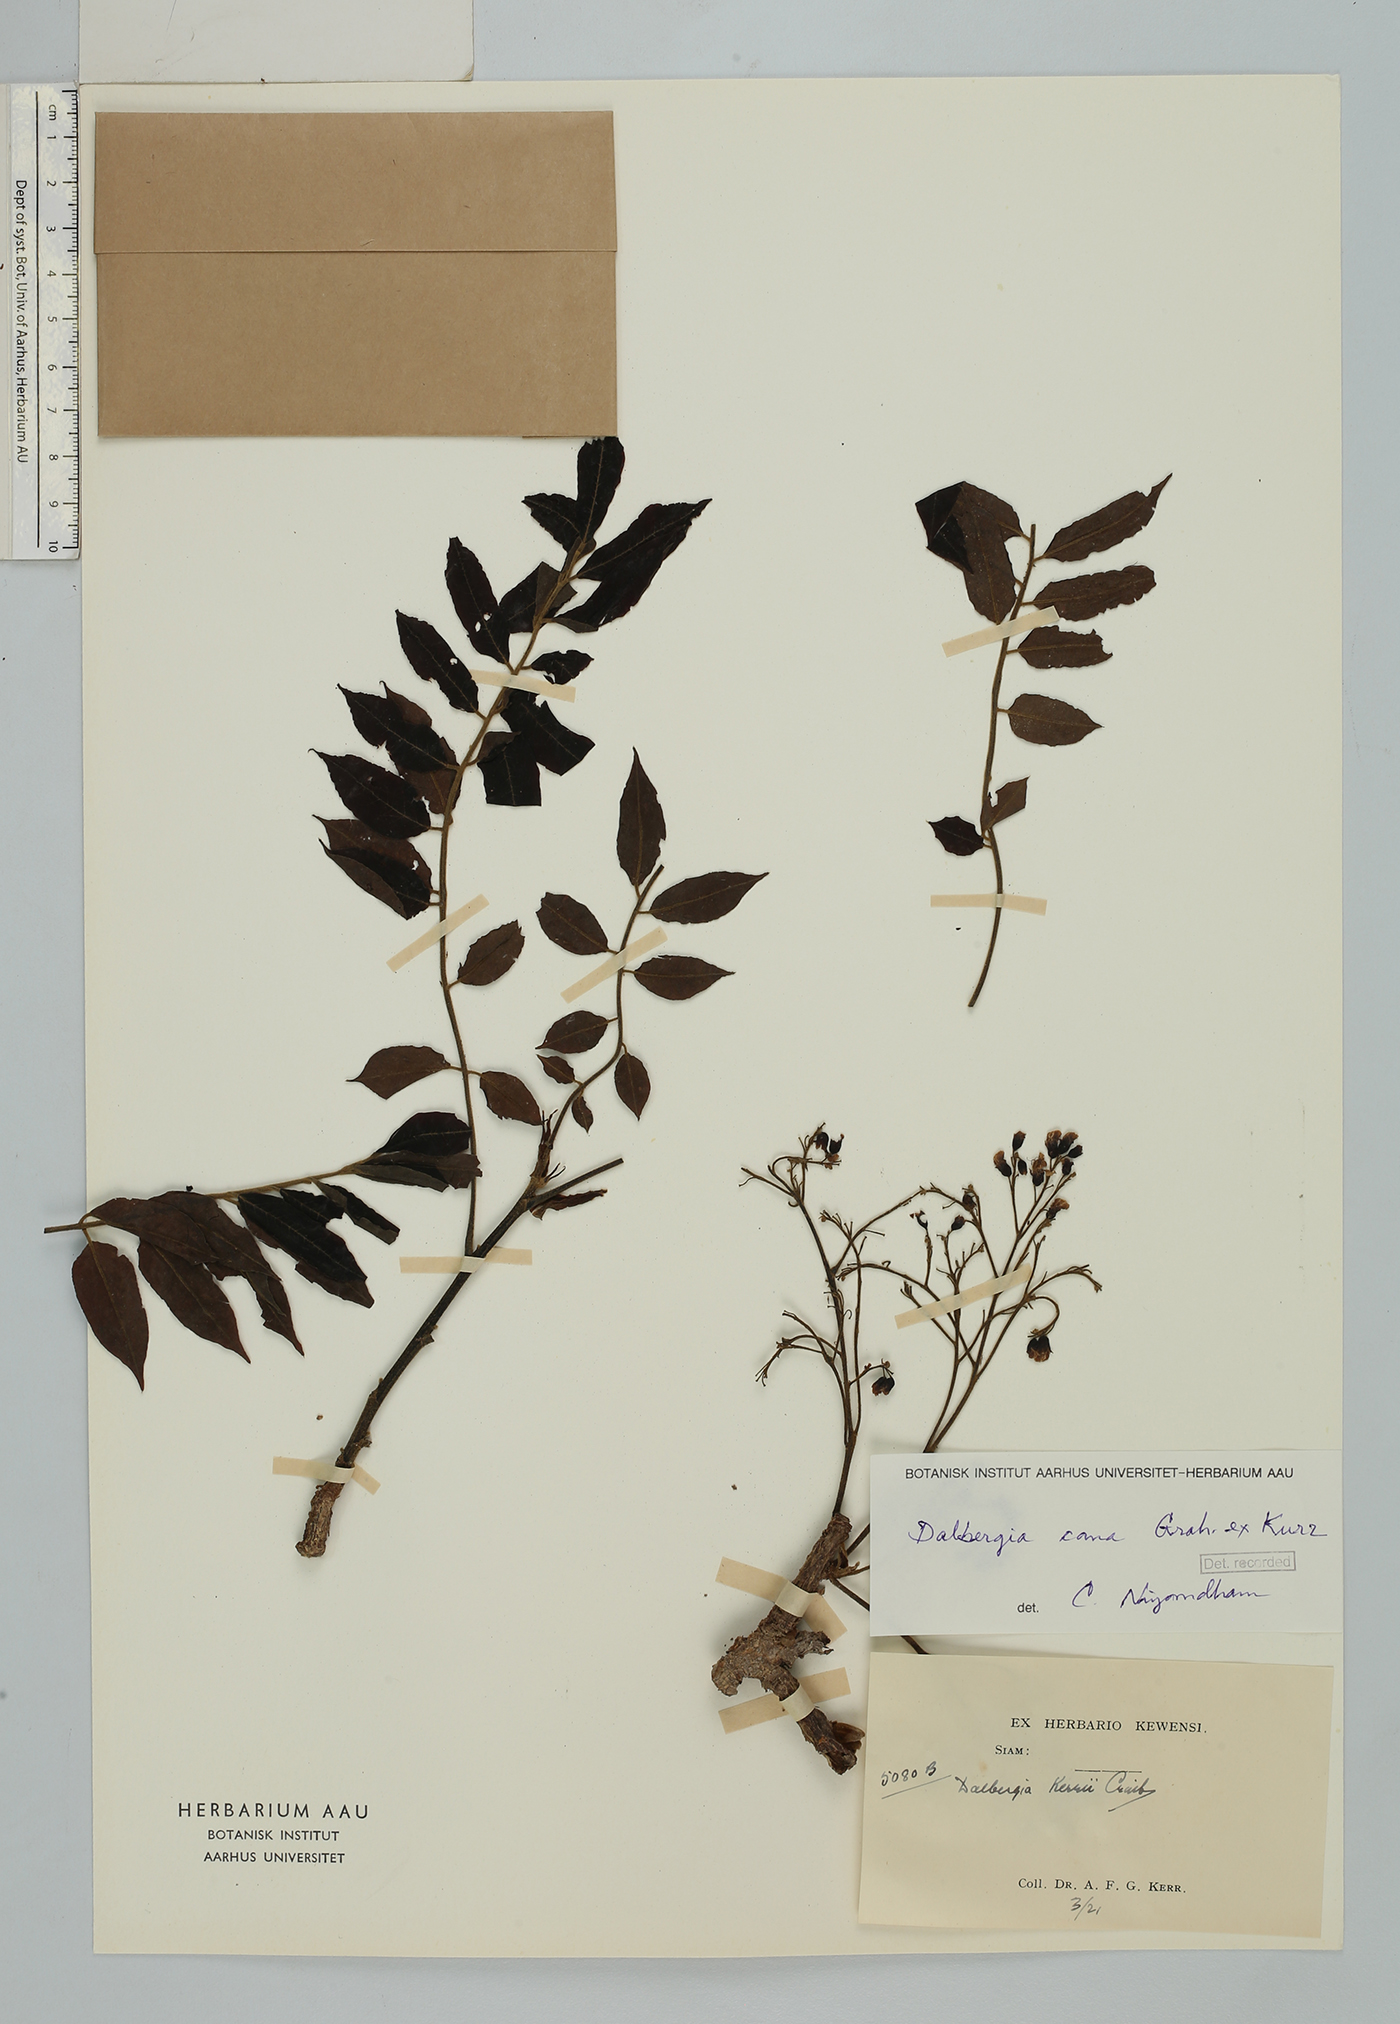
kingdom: Plantae
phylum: Tracheophyta
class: Magnoliopsida
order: Fabales
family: Fabaceae
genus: Dalbergia
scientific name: Dalbergia cana
